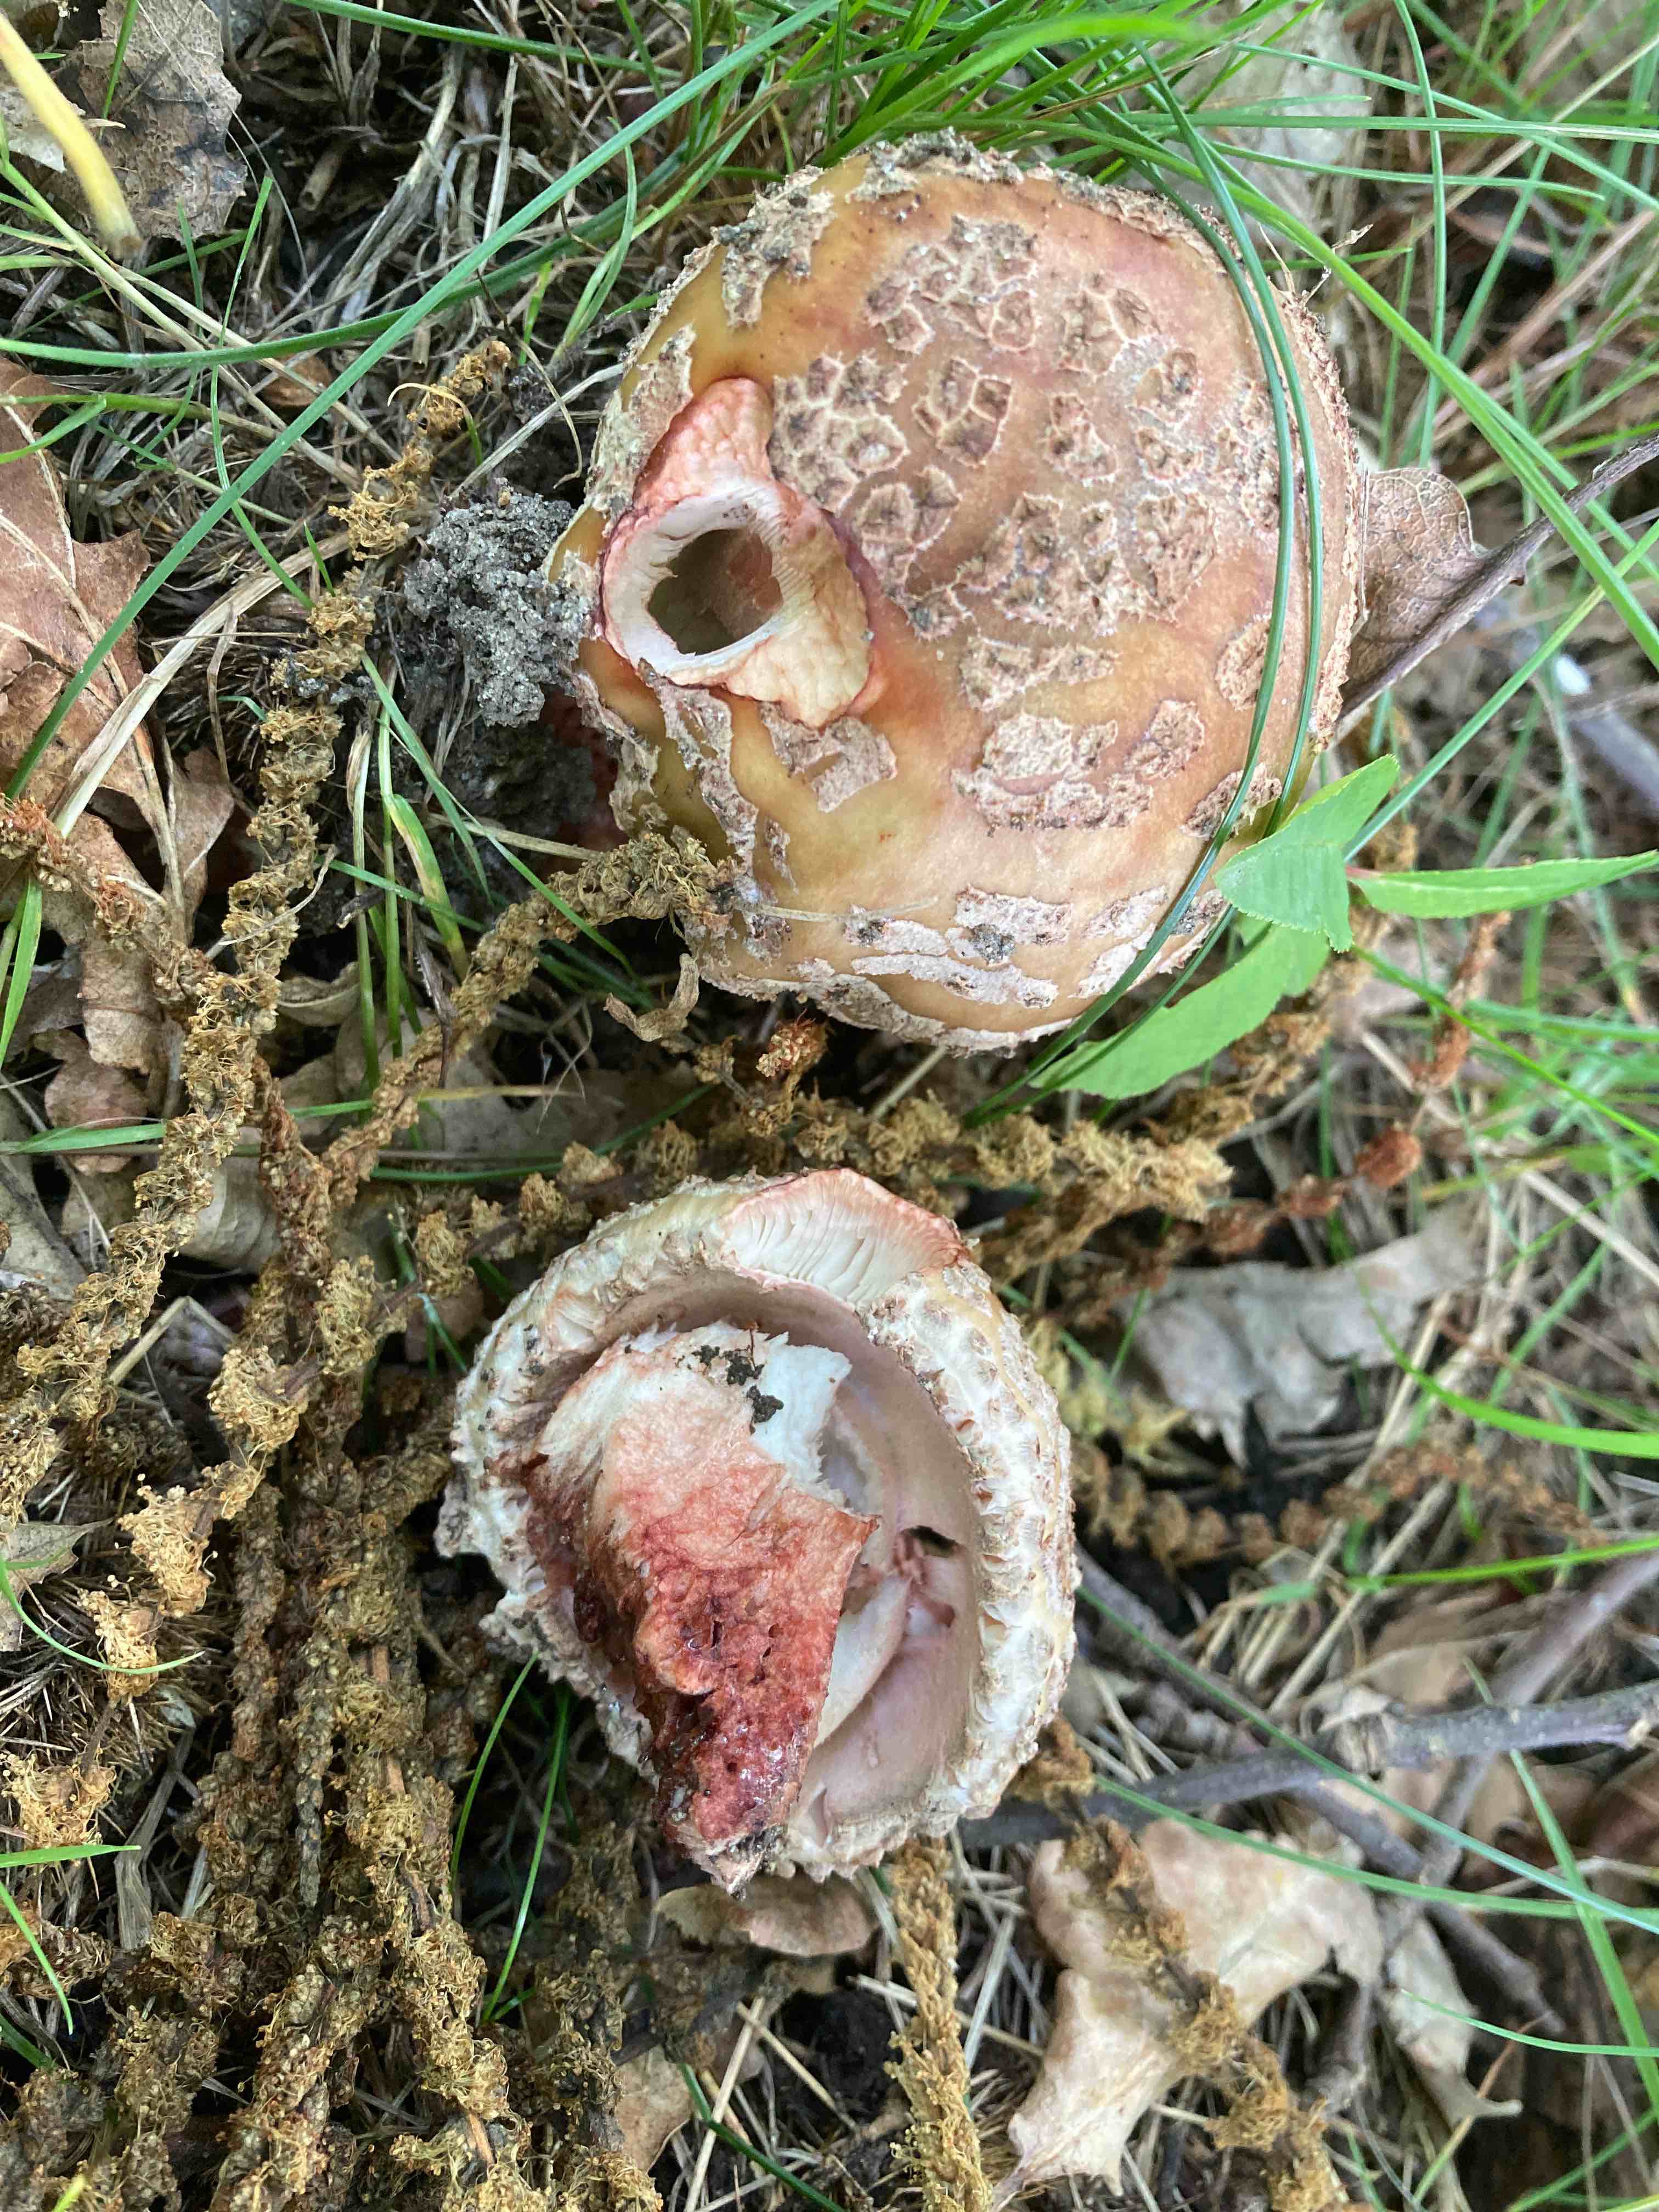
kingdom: Fungi
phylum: Basidiomycota
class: Agaricomycetes
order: Agaricales
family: Amanitaceae
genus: Amanita
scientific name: Amanita rubescens
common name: rødmende fluesvamp
